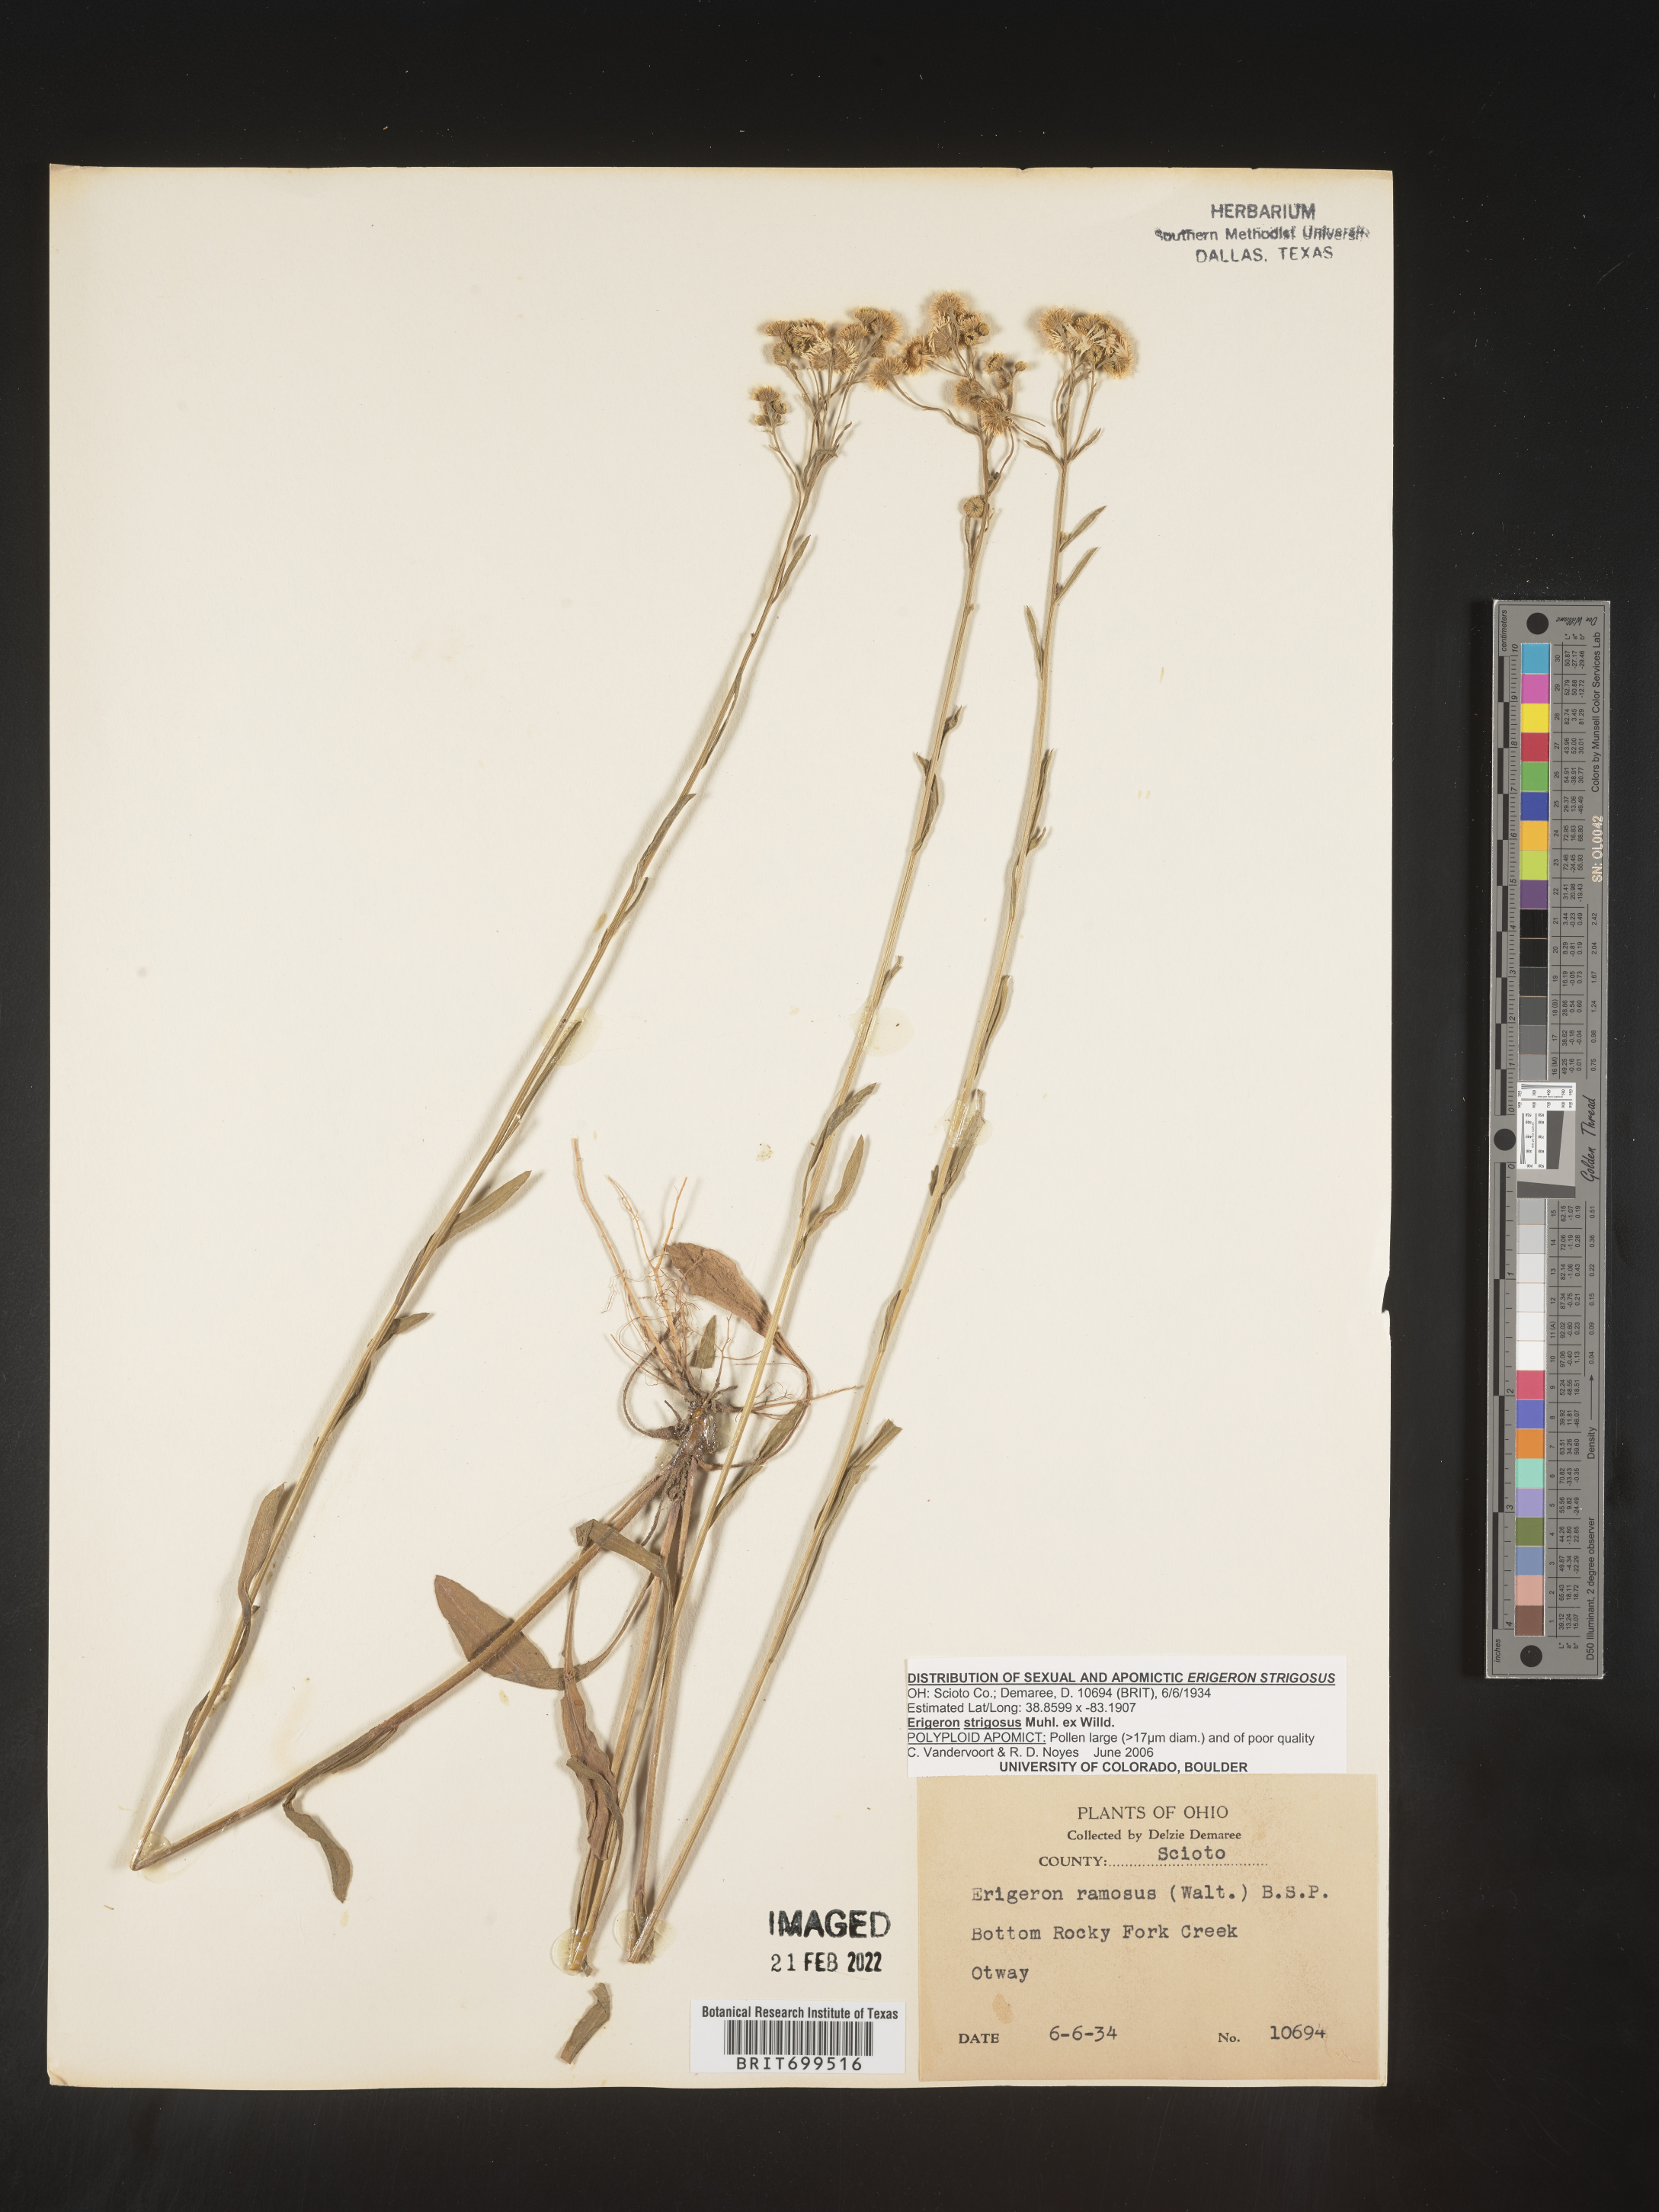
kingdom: Plantae
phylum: Tracheophyta
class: Magnoliopsida
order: Asterales
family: Asteraceae
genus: Erigeron
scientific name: Erigeron strigosus
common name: Common eastern fleabane
